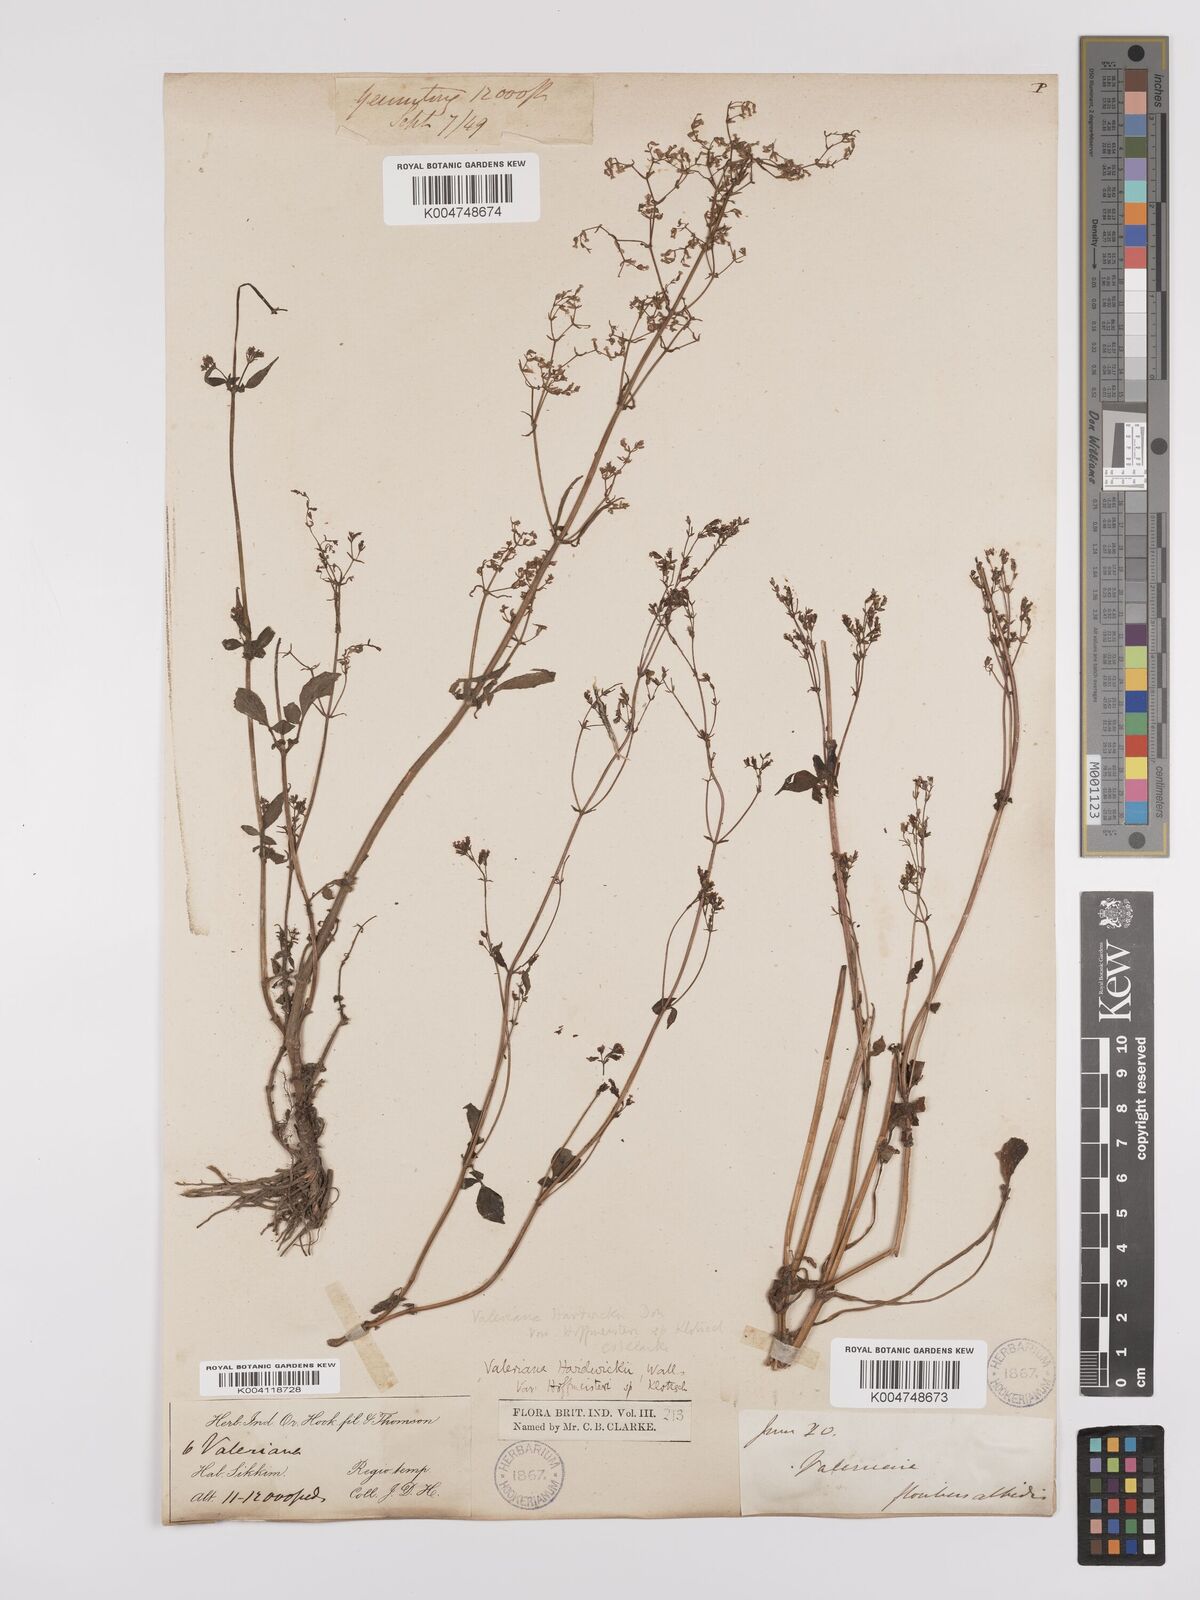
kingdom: Plantae
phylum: Tracheophyta
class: Magnoliopsida
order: Dipsacales
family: Caprifoliaceae
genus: Valeriana
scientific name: Valeriana hardwickei
